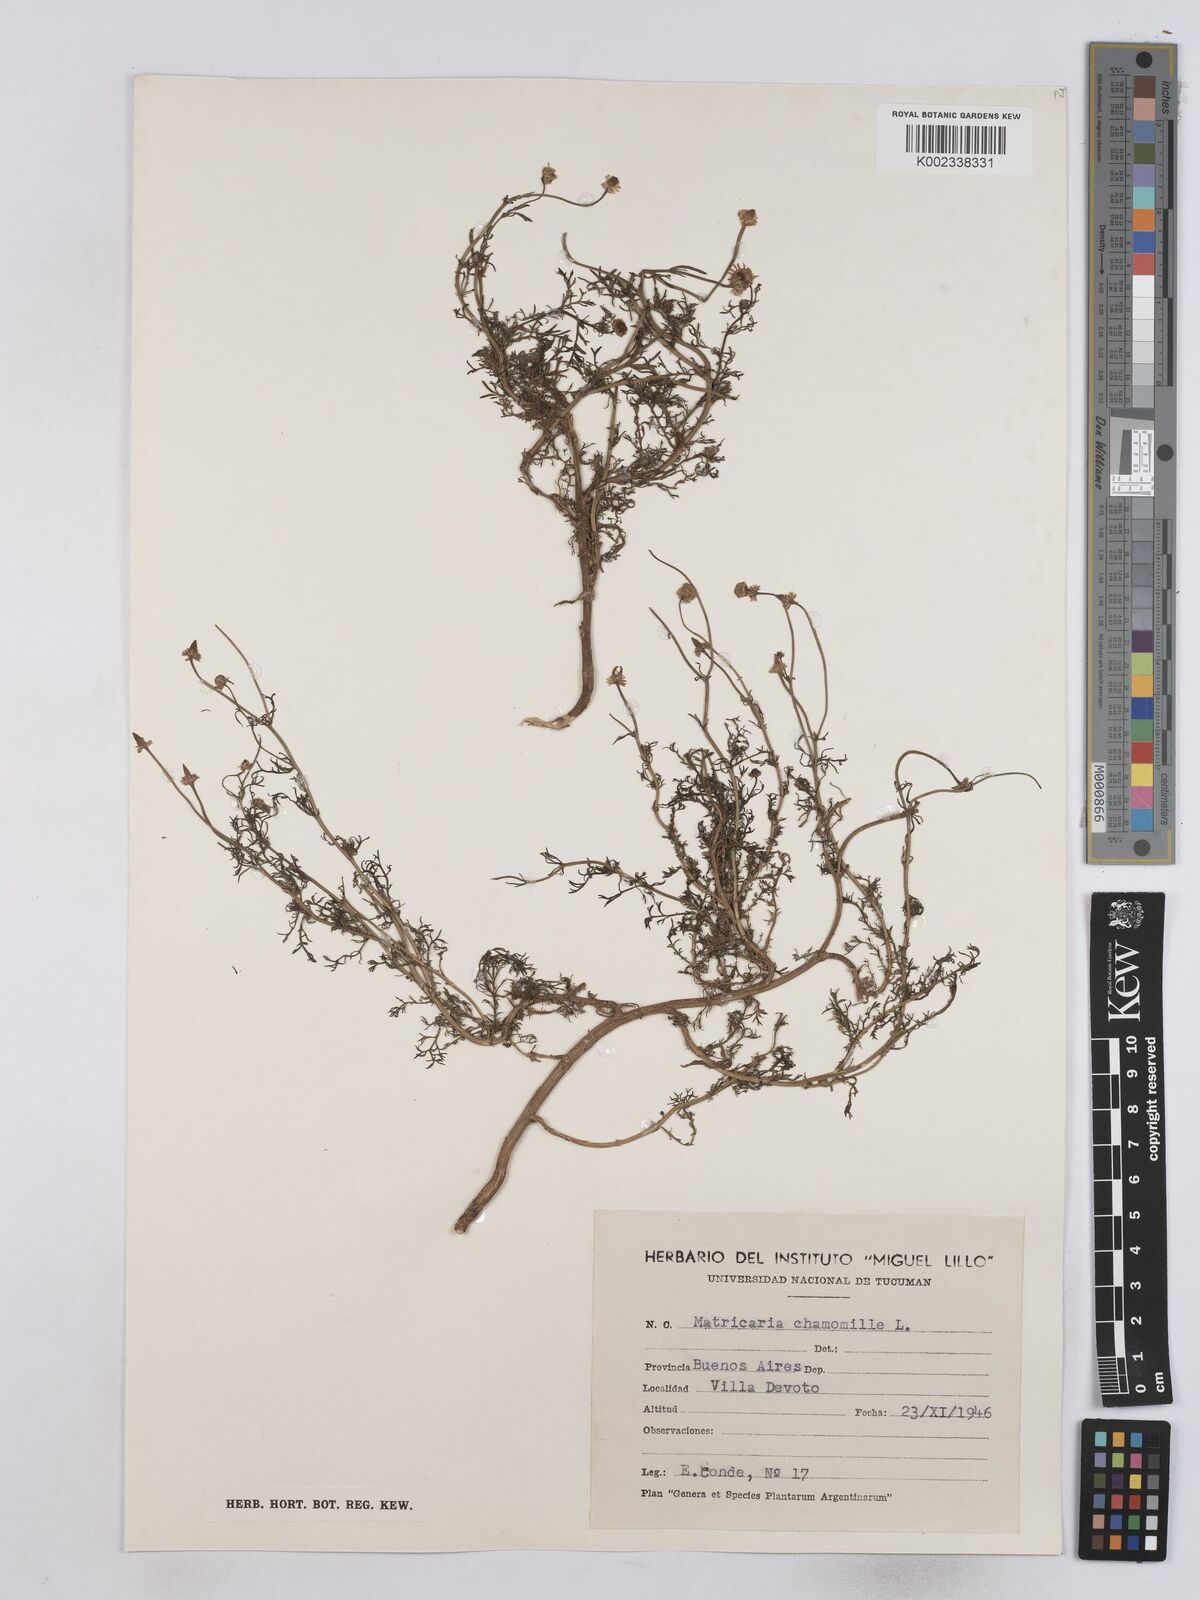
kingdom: Plantae
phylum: Tracheophyta
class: Magnoliopsida
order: Asterales
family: Asteraceae
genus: Matricaria
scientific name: Matricaria chamomilla
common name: Scented mayweed
